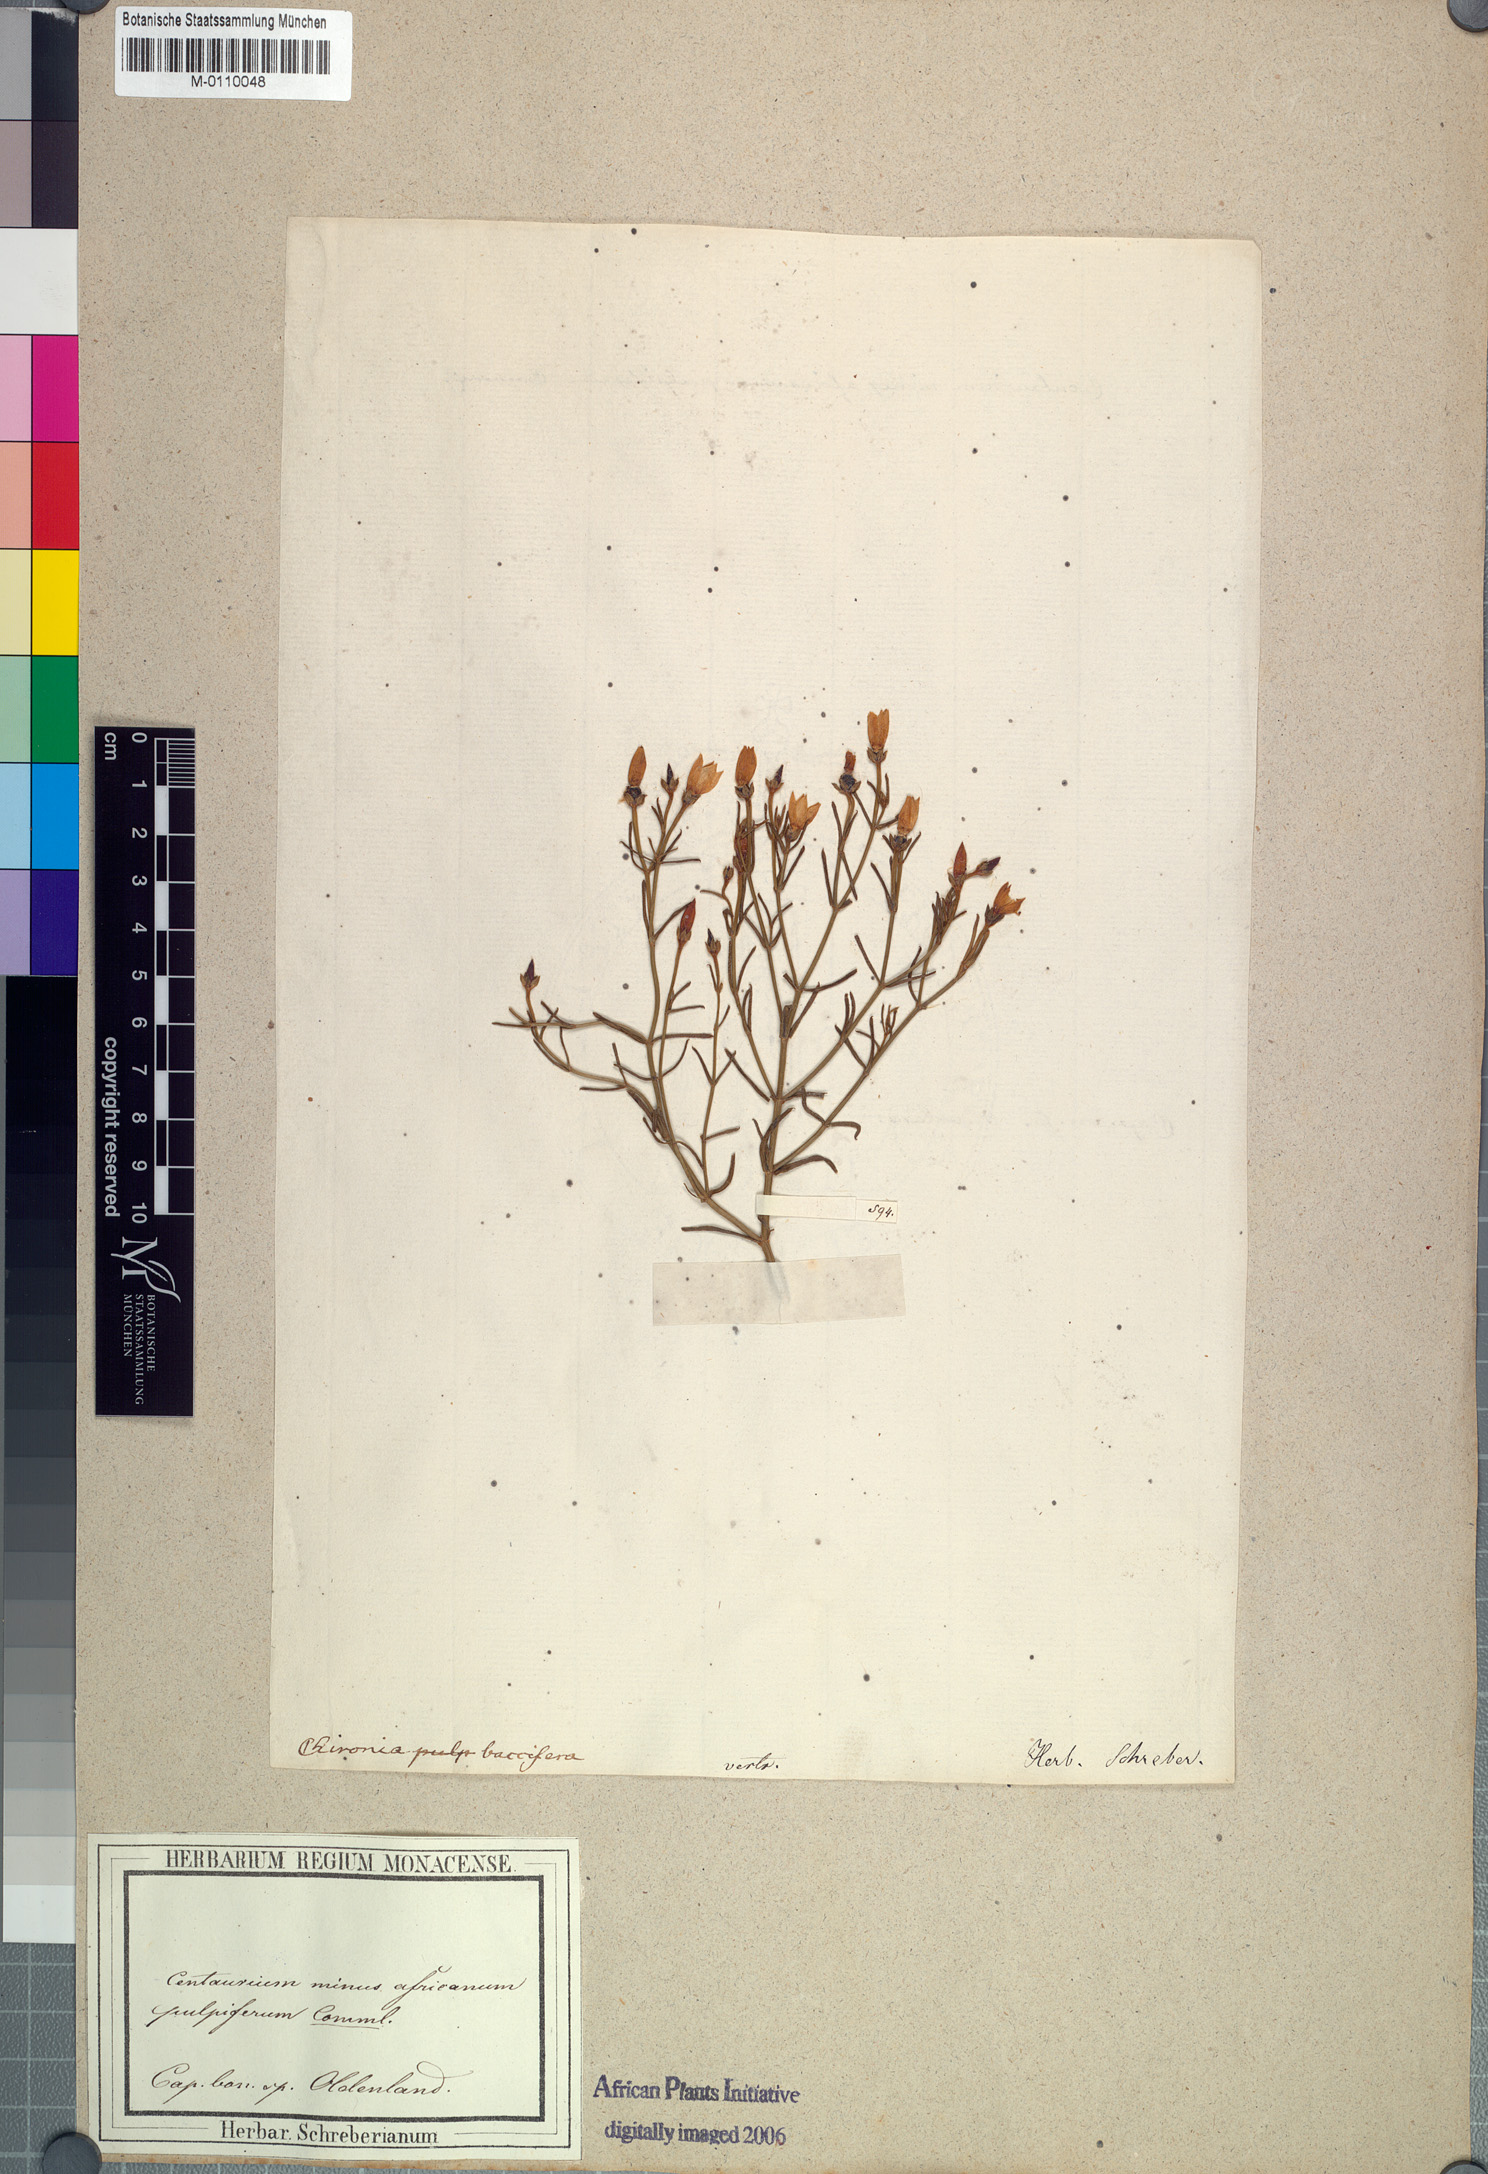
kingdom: Plantae
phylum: Tracheophyta
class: Magnoliopsida
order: Gentianales
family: Gentianaceae
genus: Chironia
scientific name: Chironia baccifera
